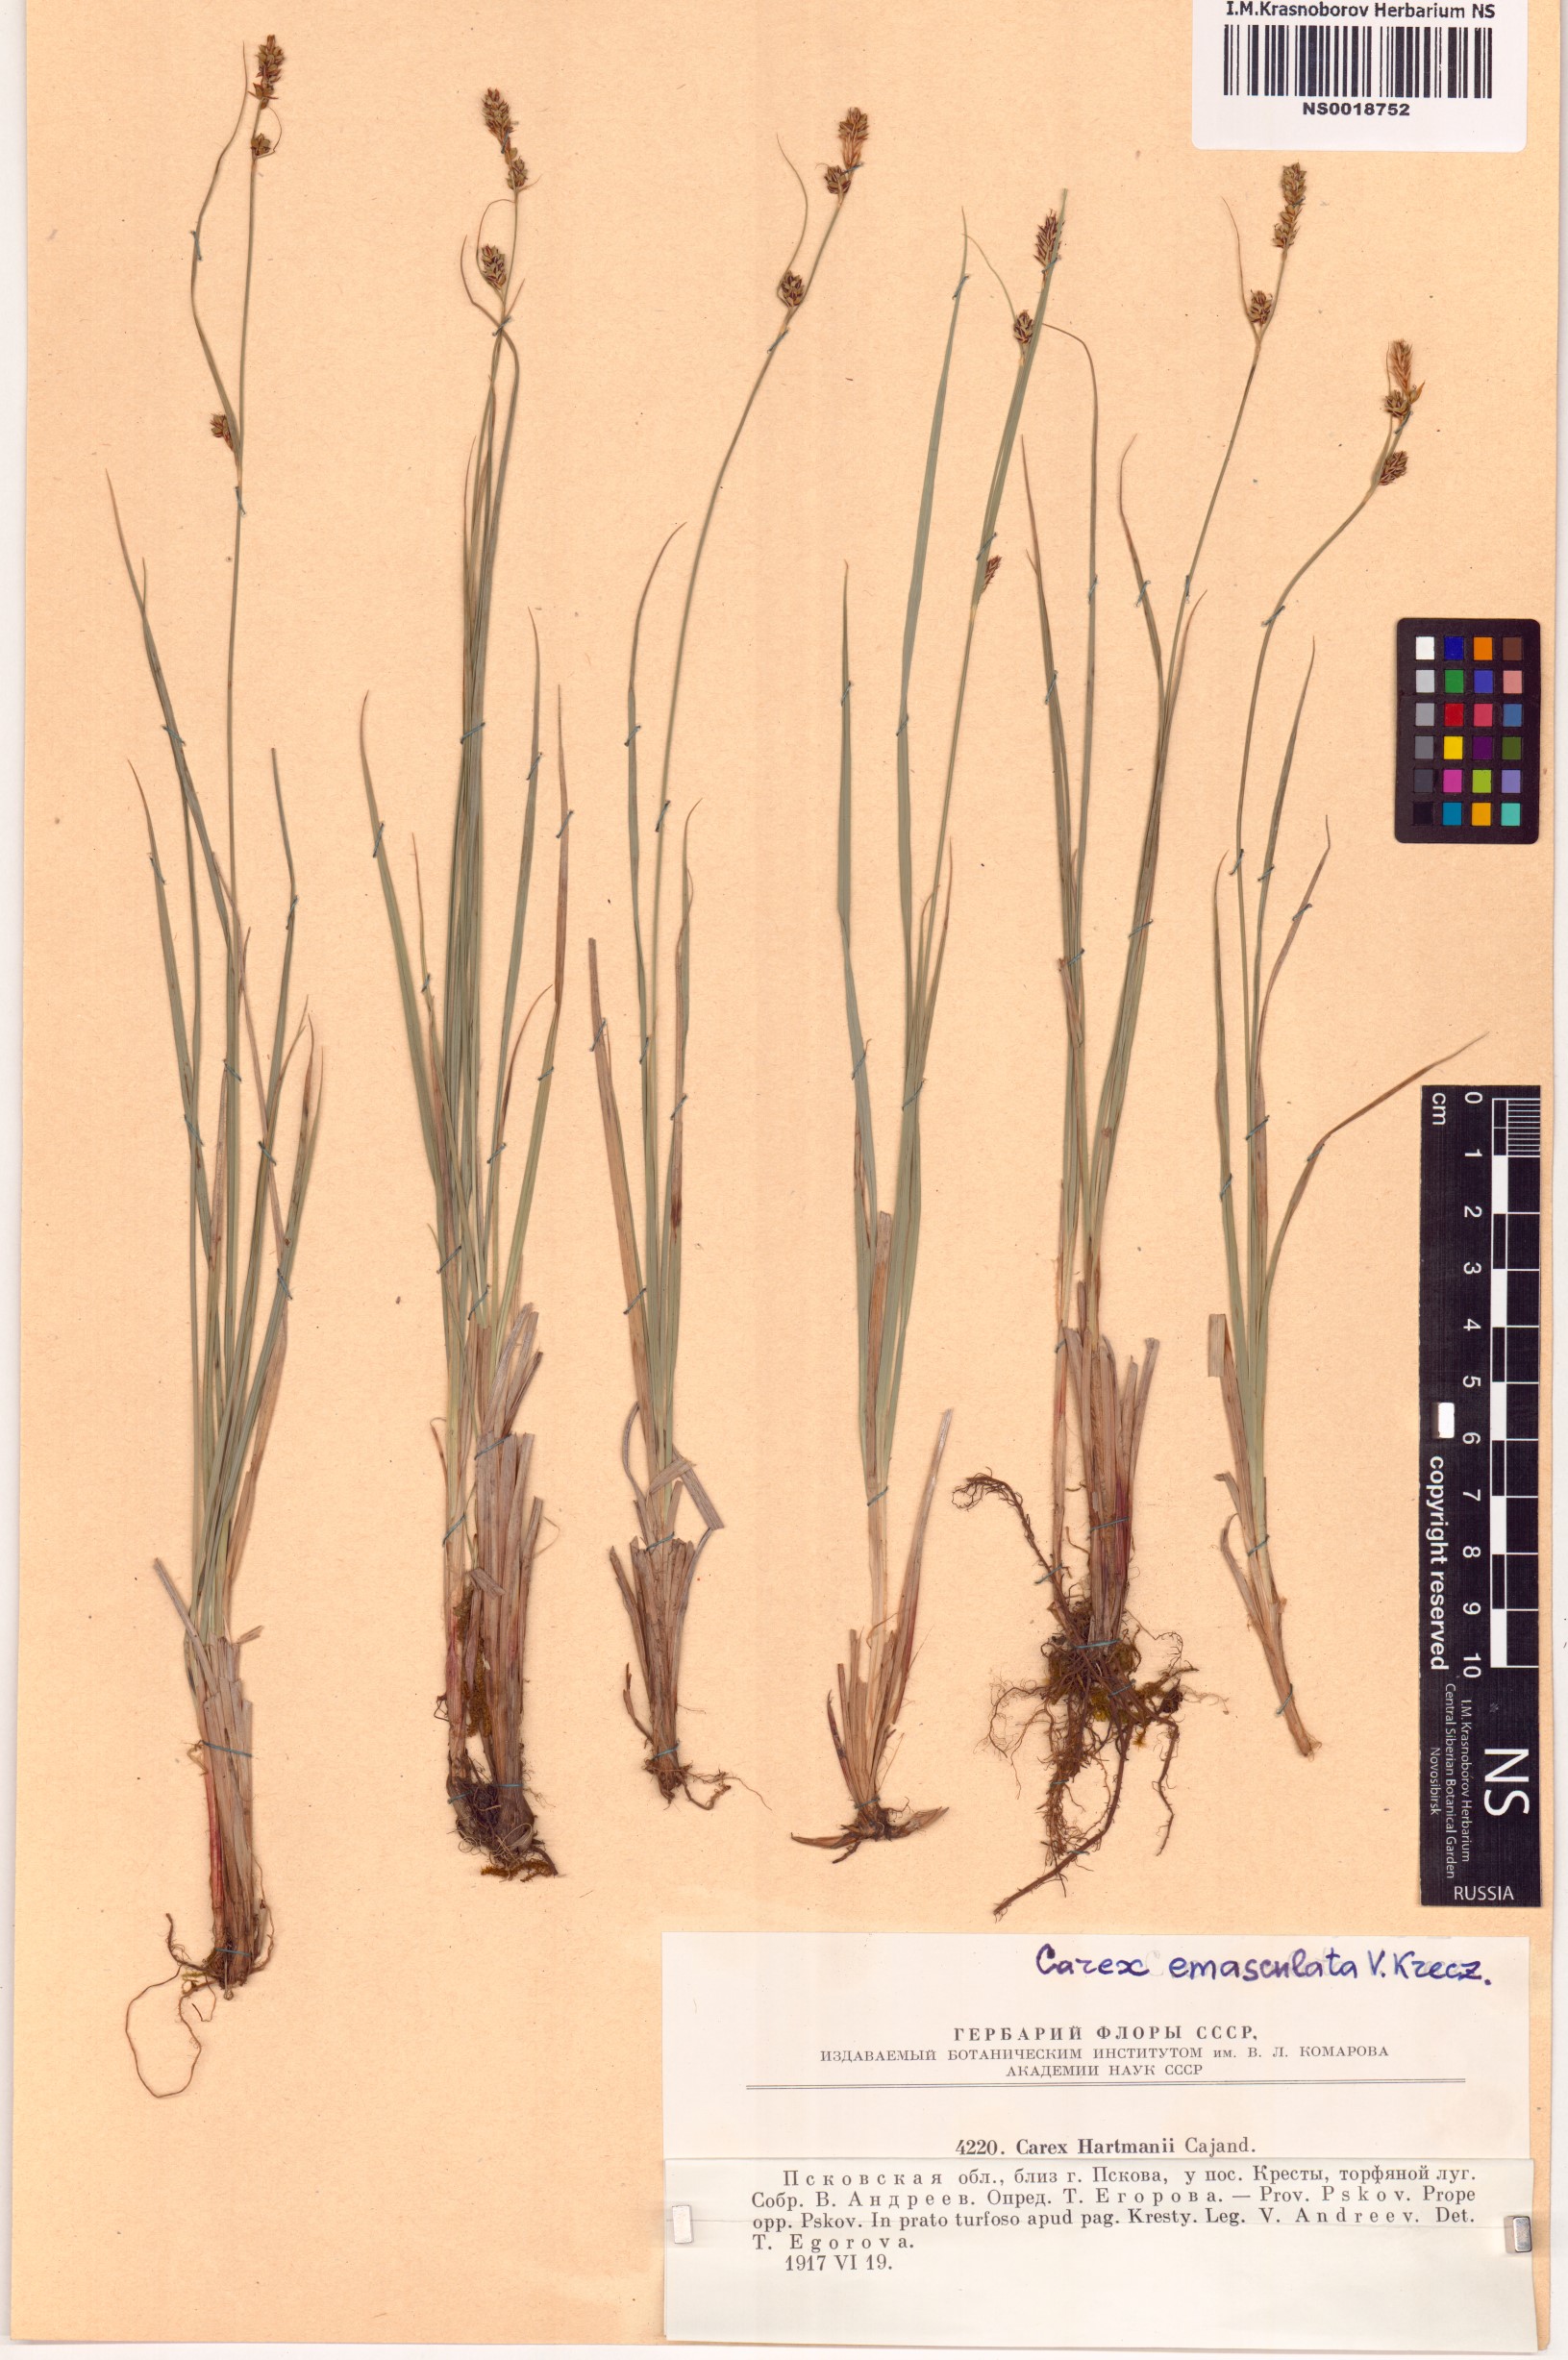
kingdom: Plantae
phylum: Tracheophyta
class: Liliopsida
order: Poales
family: Cyperaceae
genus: Carex
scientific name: Carex hartmaniorum
